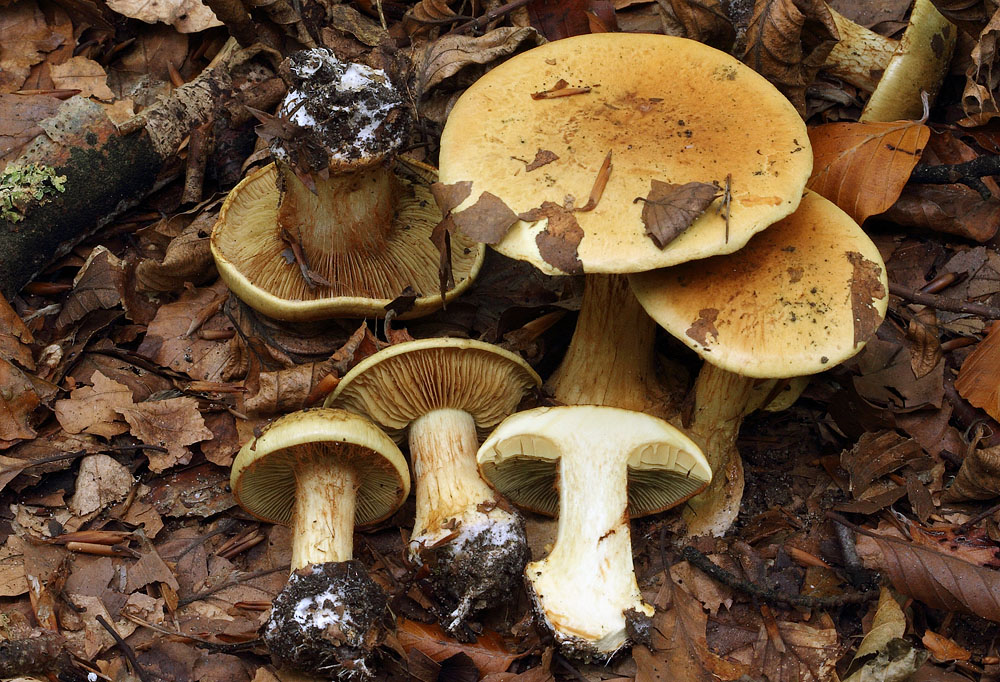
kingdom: Fungi
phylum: Basidiomycota
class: Agaricomycetes
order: Agaricales
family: Cortinariaceae
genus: Calonarius
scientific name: Calonarius sulfurinus
